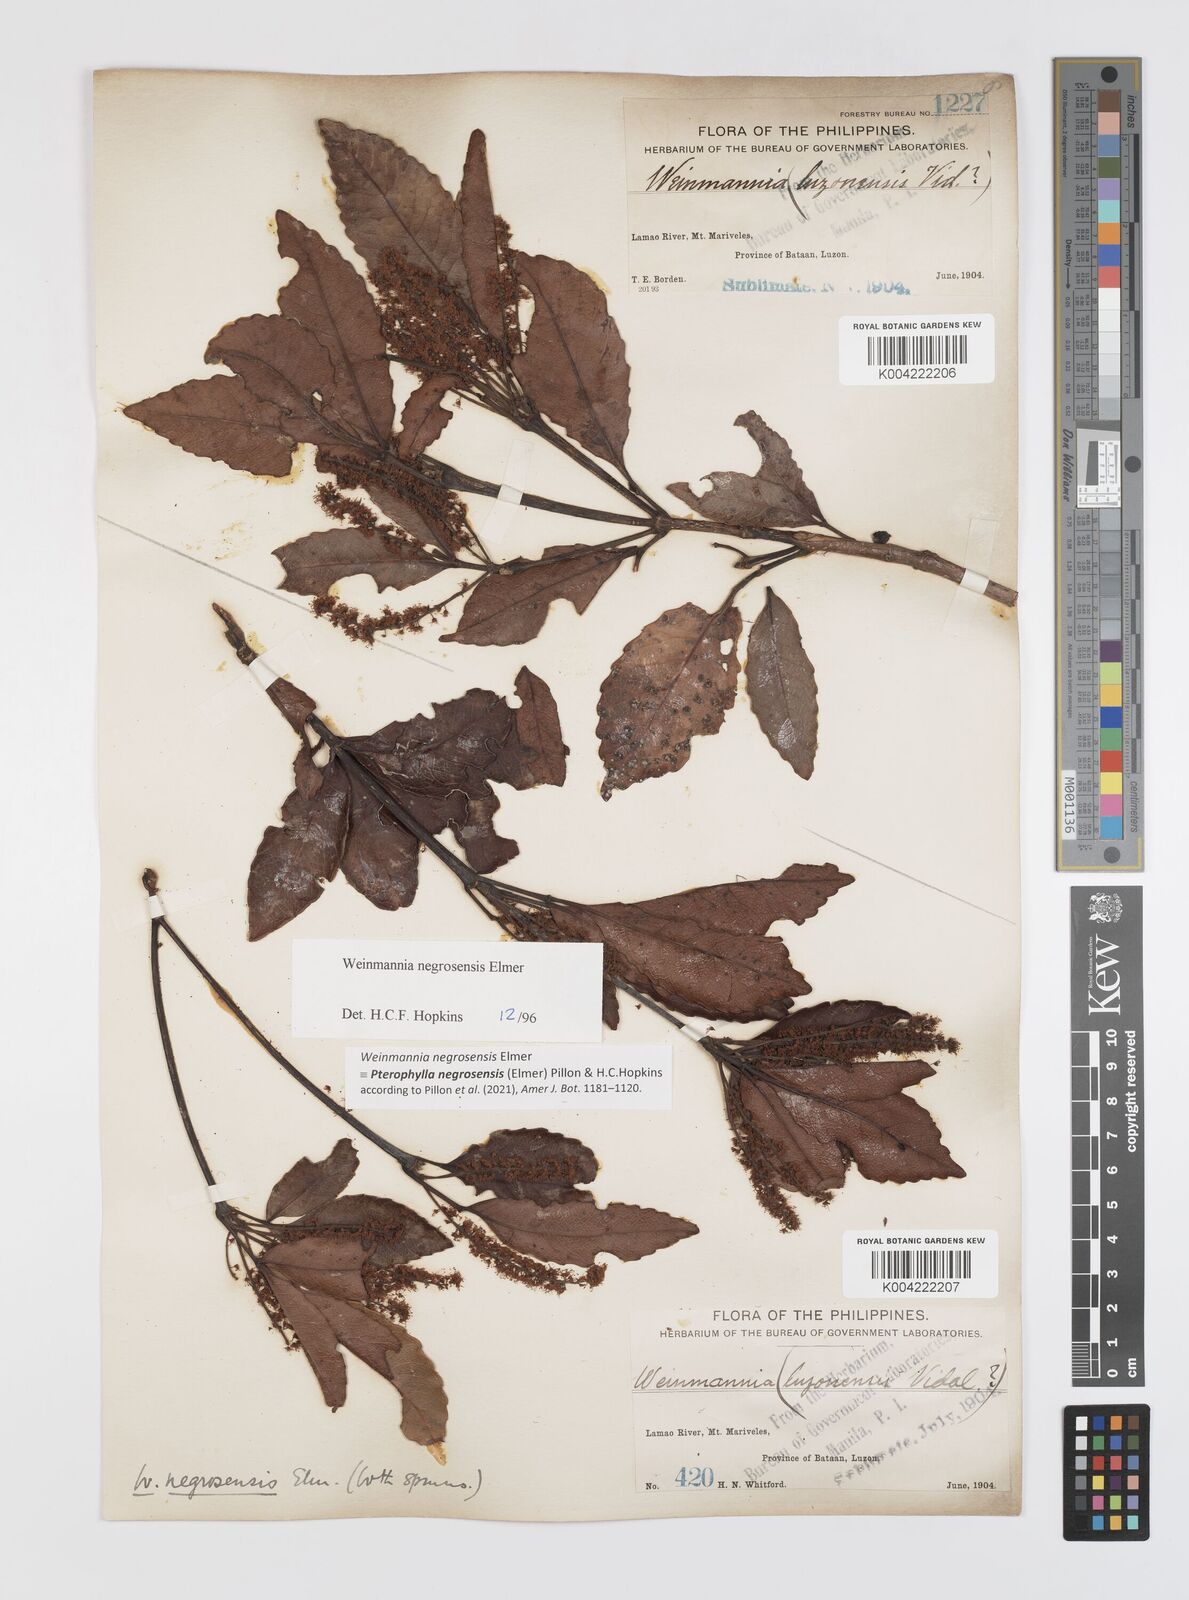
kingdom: Plantae
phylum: Tracheophyta
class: Magnoliopsida
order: Oxalidales
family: Cunoniaceae
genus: Pterophylla
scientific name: Pterophylla negrosensis
